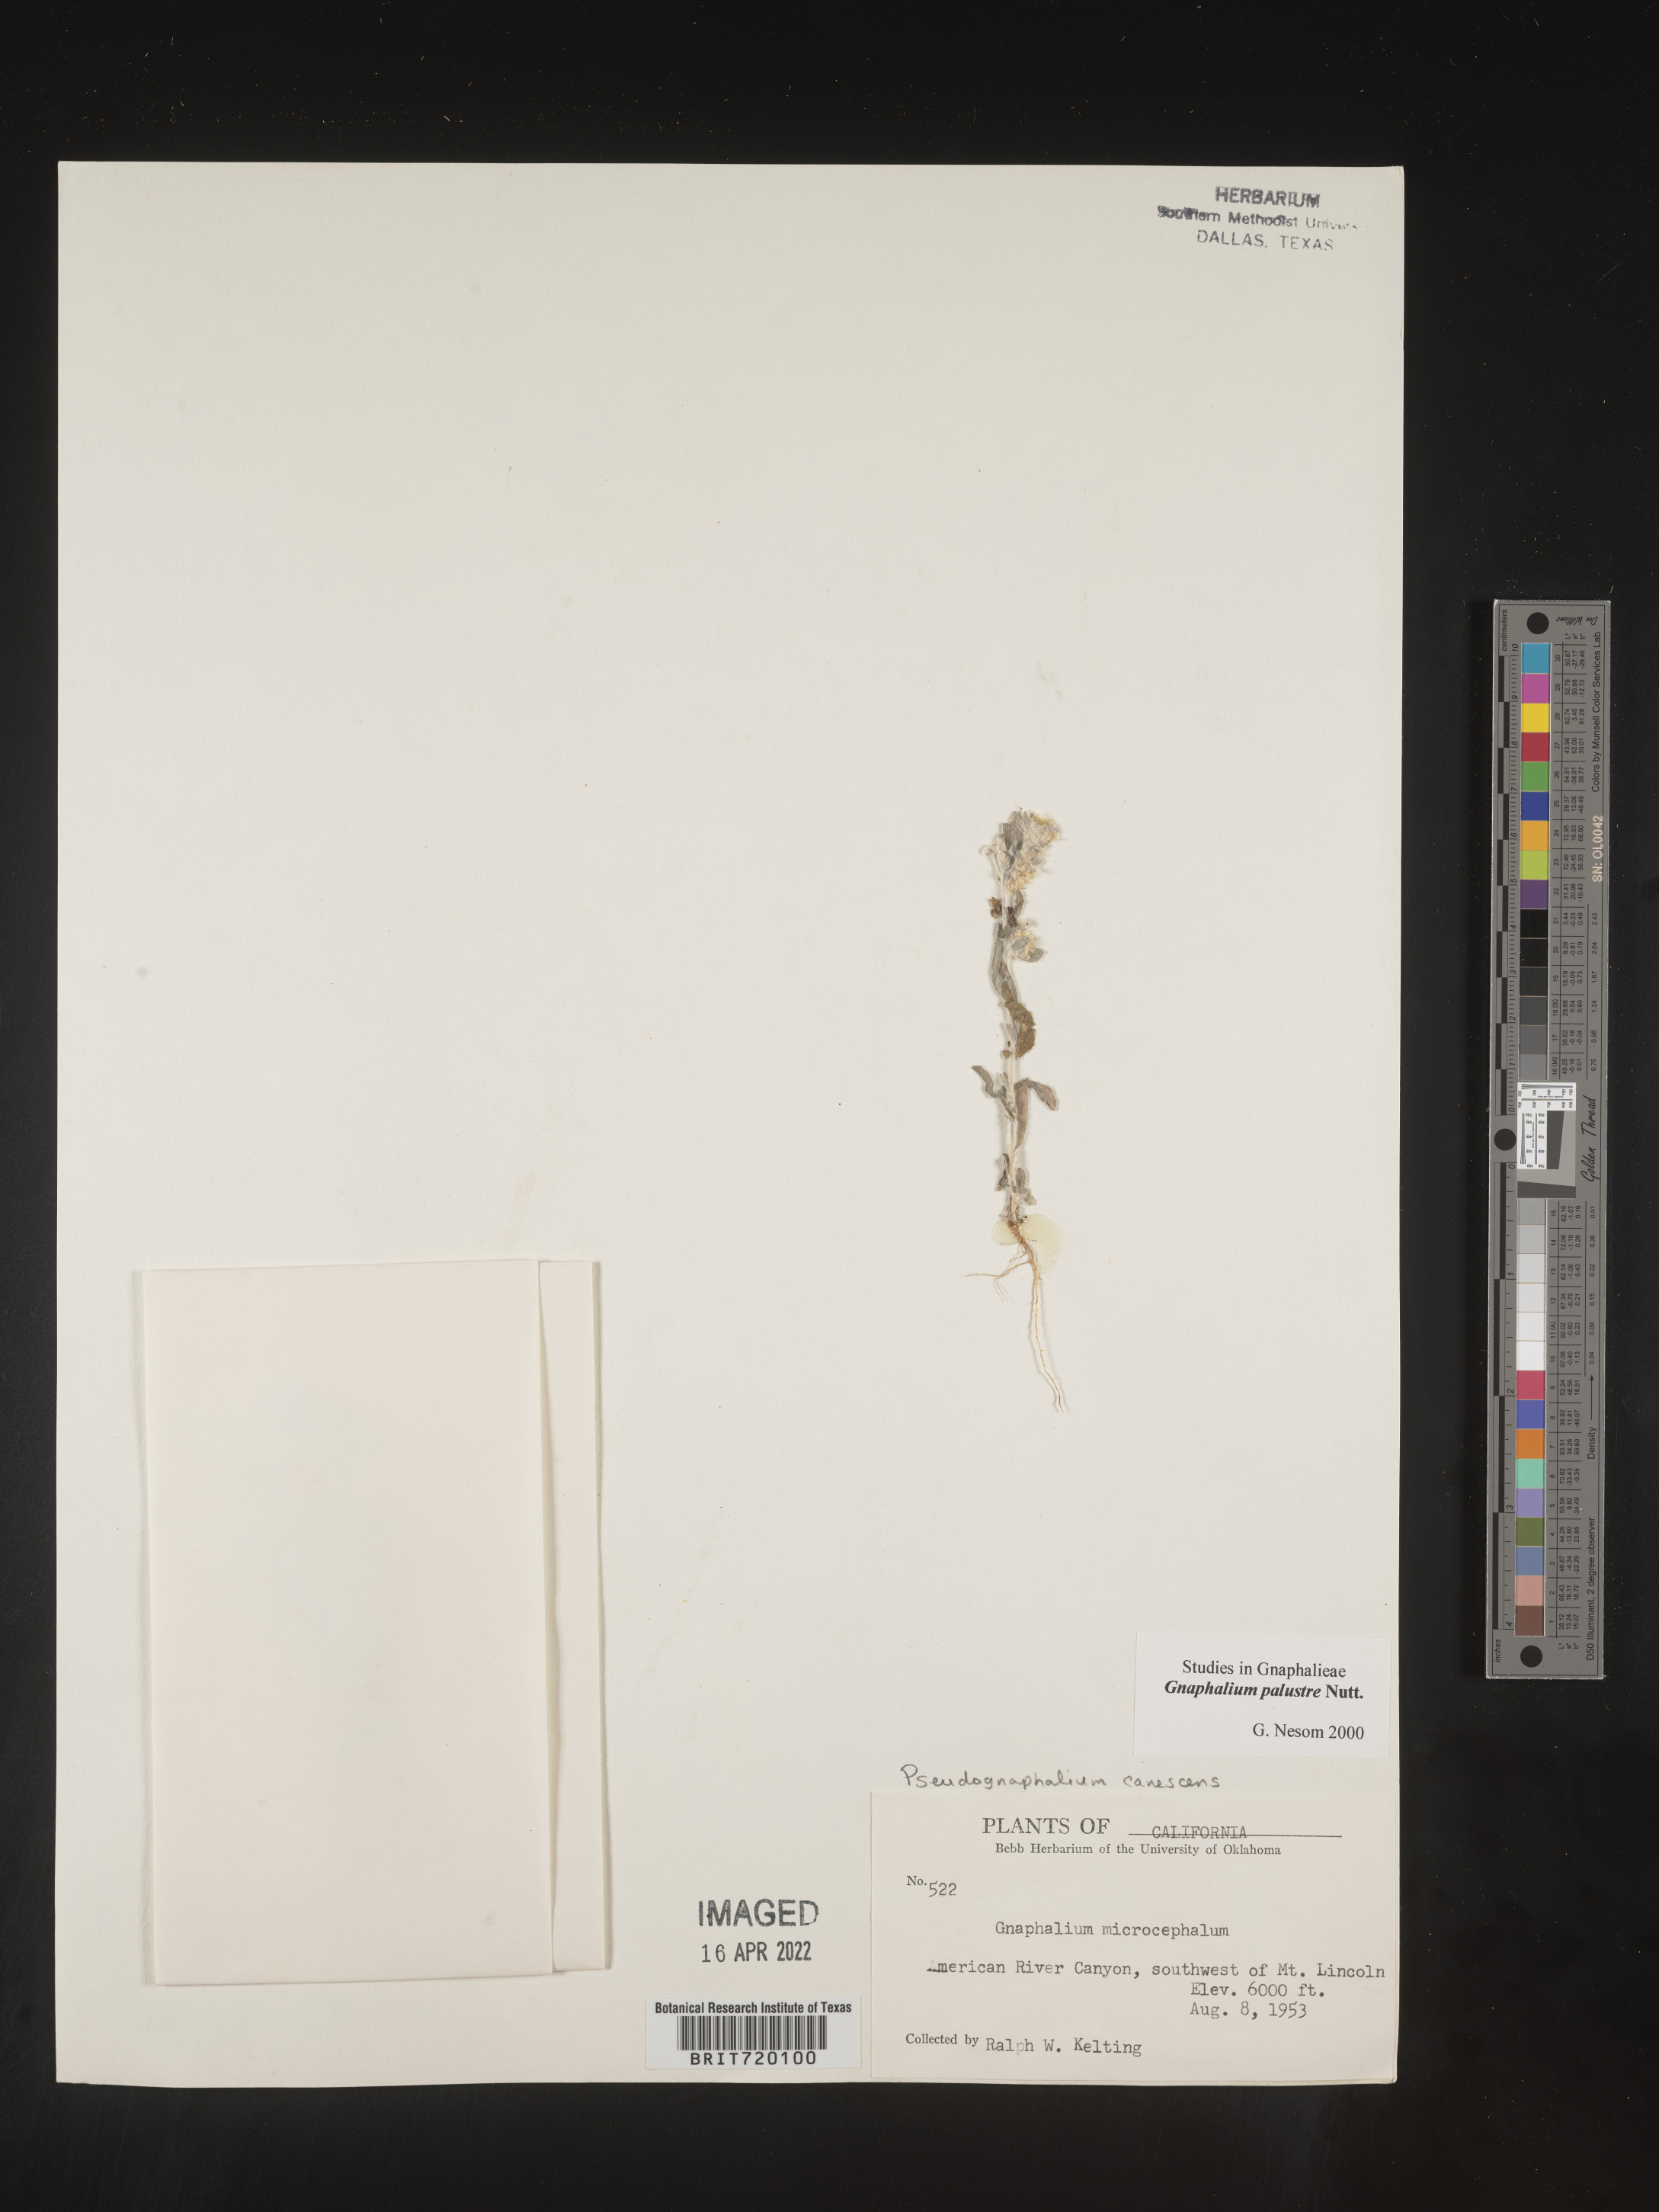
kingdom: Plantae
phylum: Tracheophyta
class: Magnoliopsida
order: Asterales
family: Asteraceae
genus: Gnaphalium
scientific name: Gnaphalium palustre
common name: Western marsh cudweed
